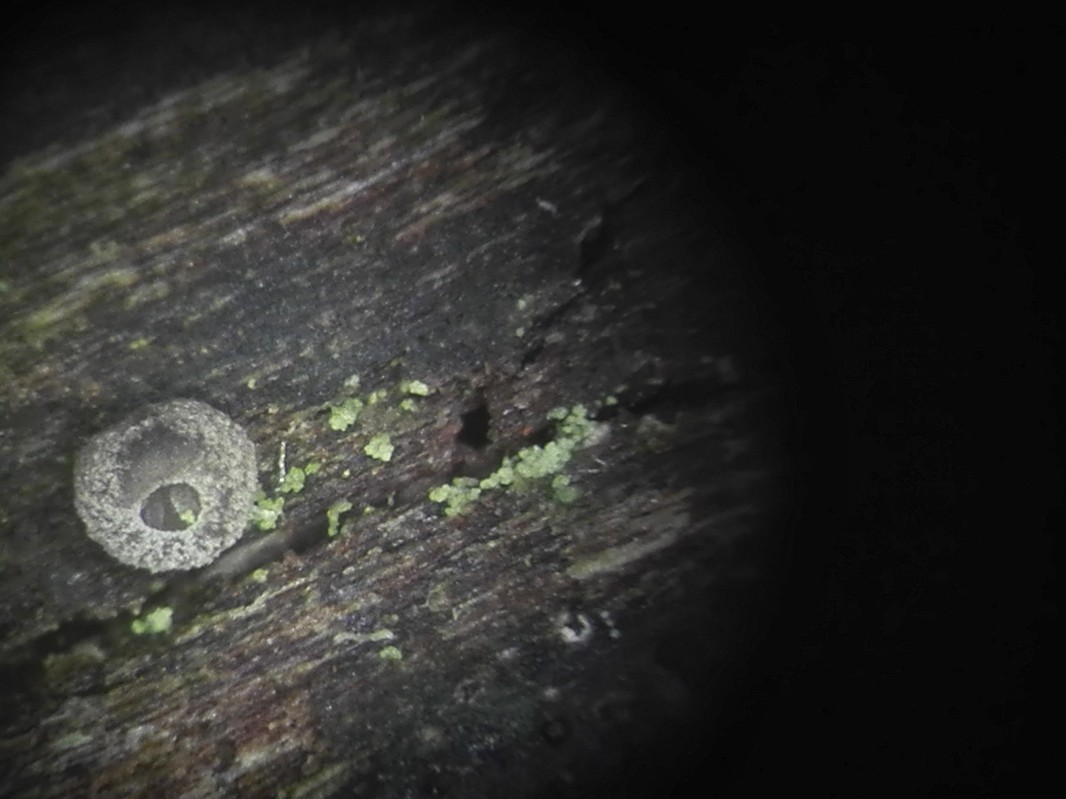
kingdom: Fungi
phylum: Basidiomycota
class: Agaricomycetes
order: Agaricales
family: Pleurotaceae
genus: Resupinatus
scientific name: Resupinatus applicatus
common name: lysfiltet barkhat
